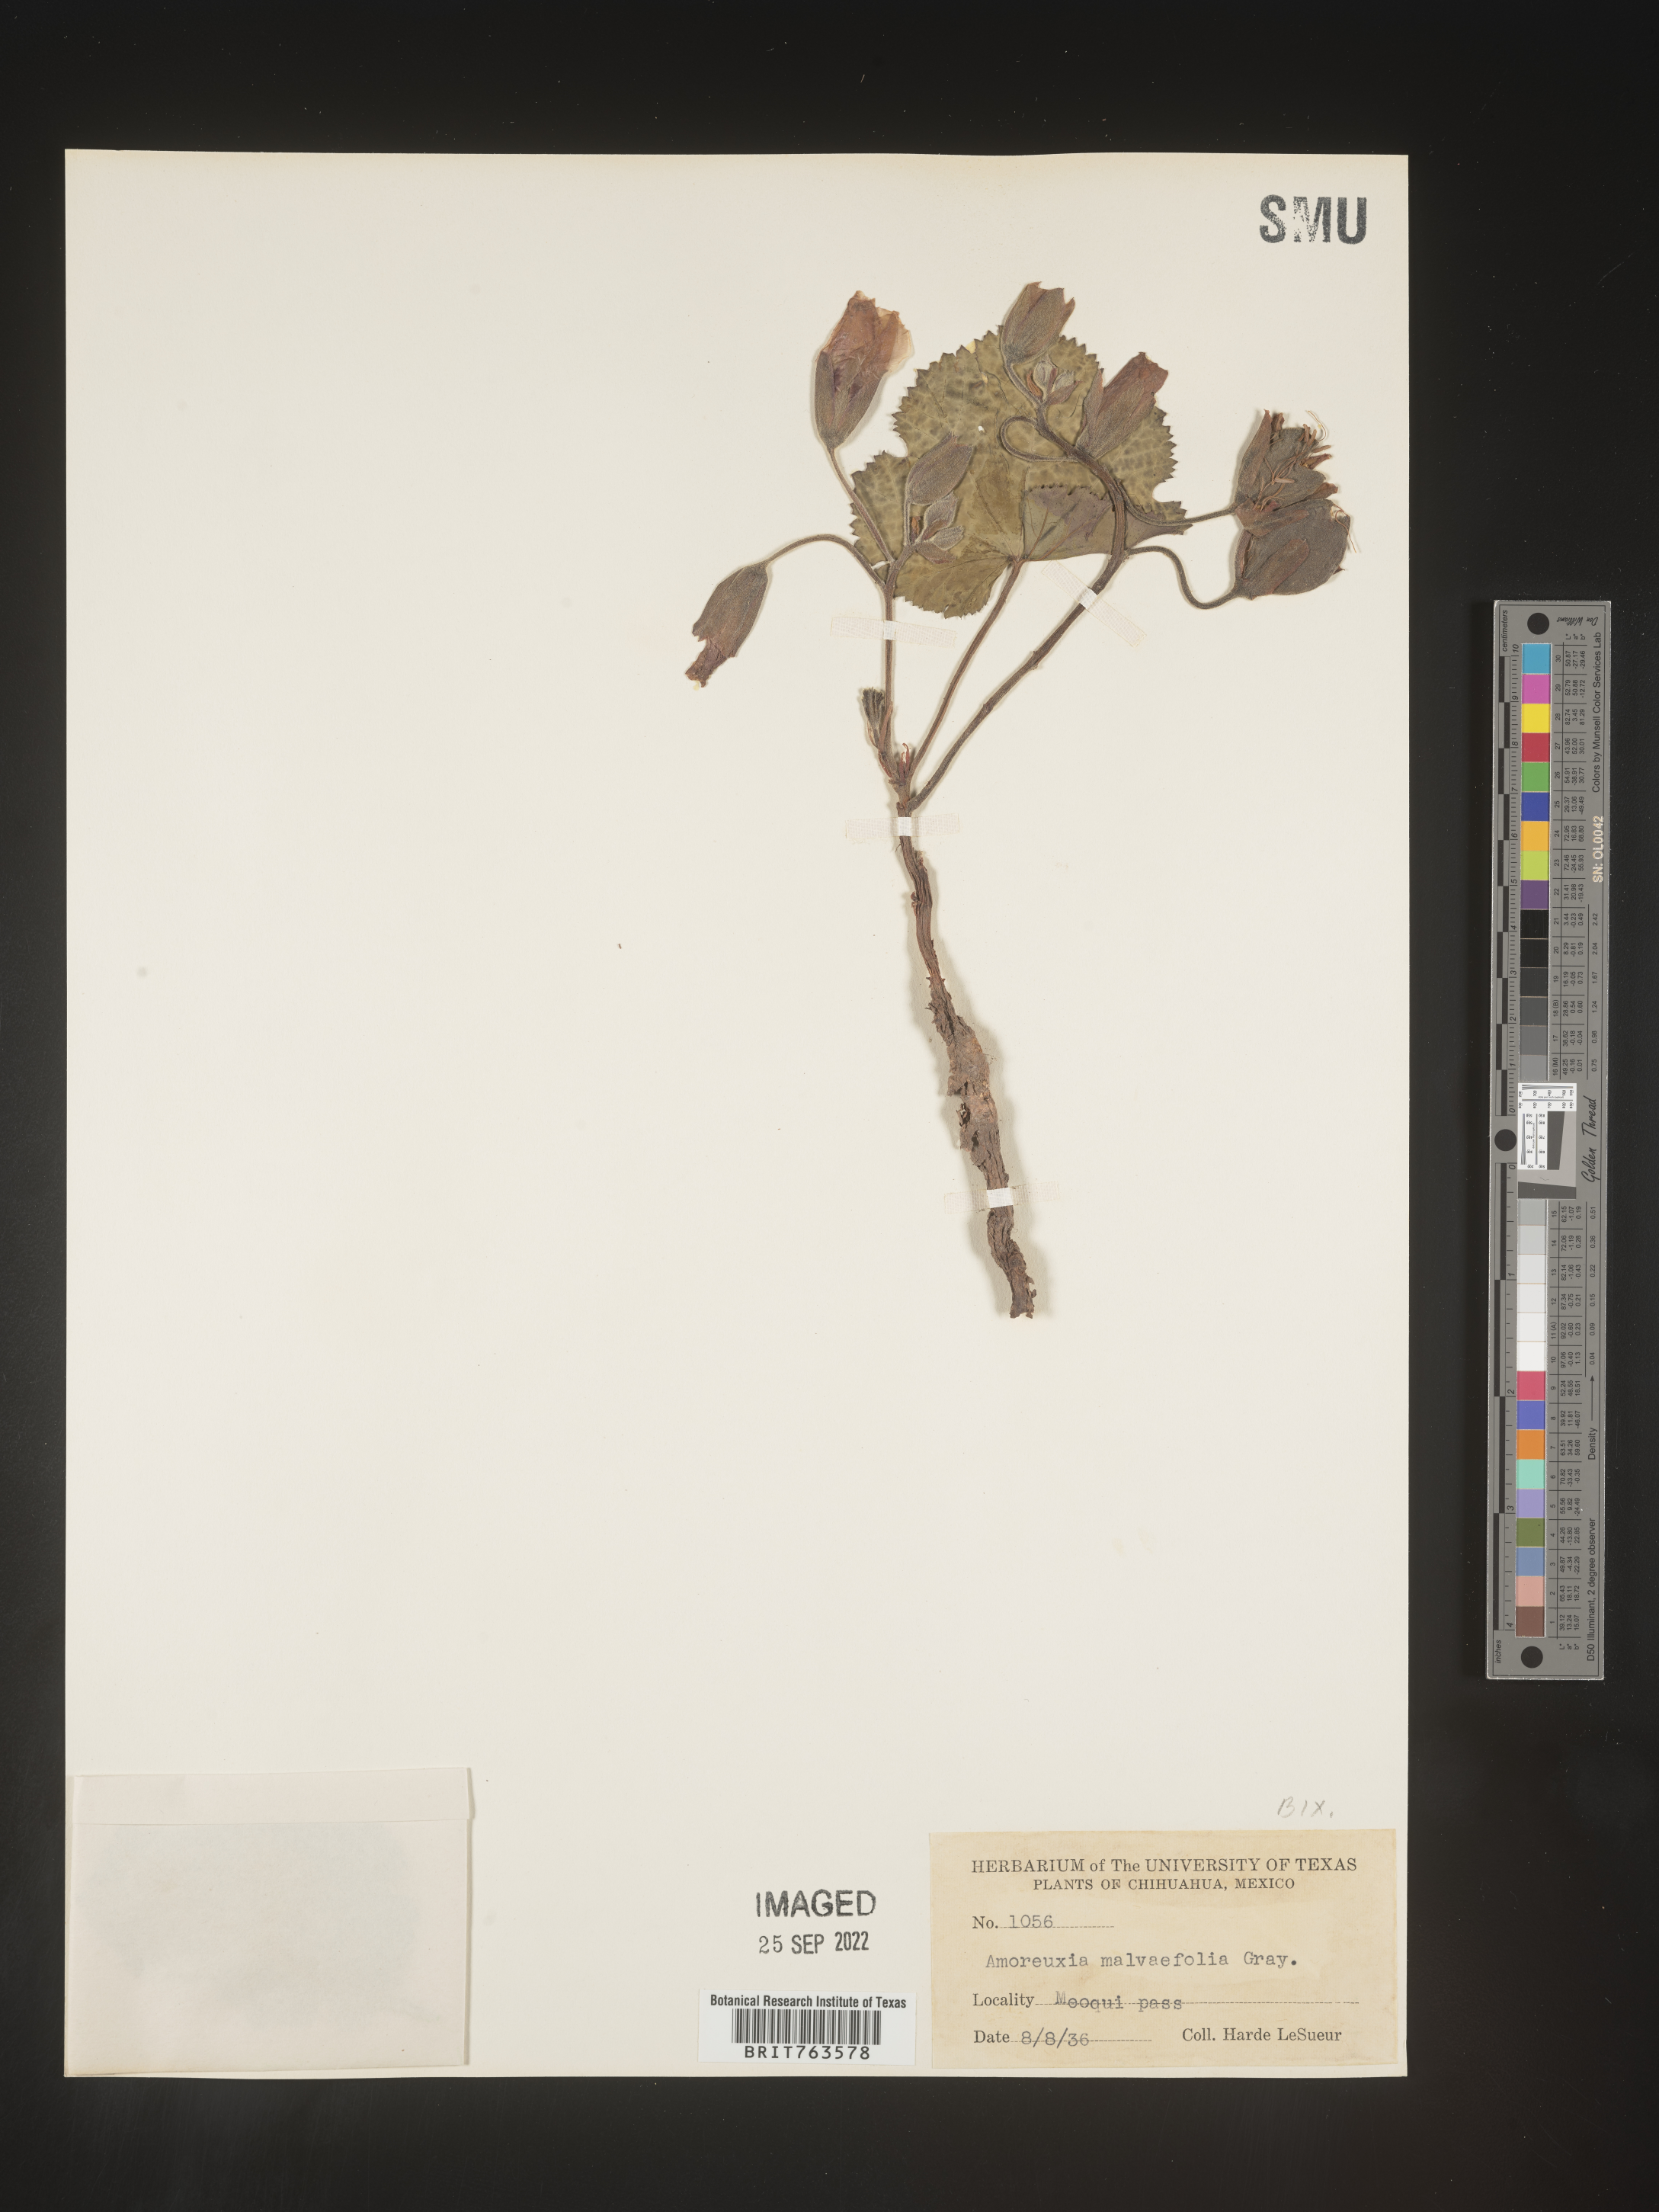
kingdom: Plantae
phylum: Tracheophyta
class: Magnoliopsida
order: Caryophyllales
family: Amaranthaceae
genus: Amoreuxia
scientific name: Amoreuxia
